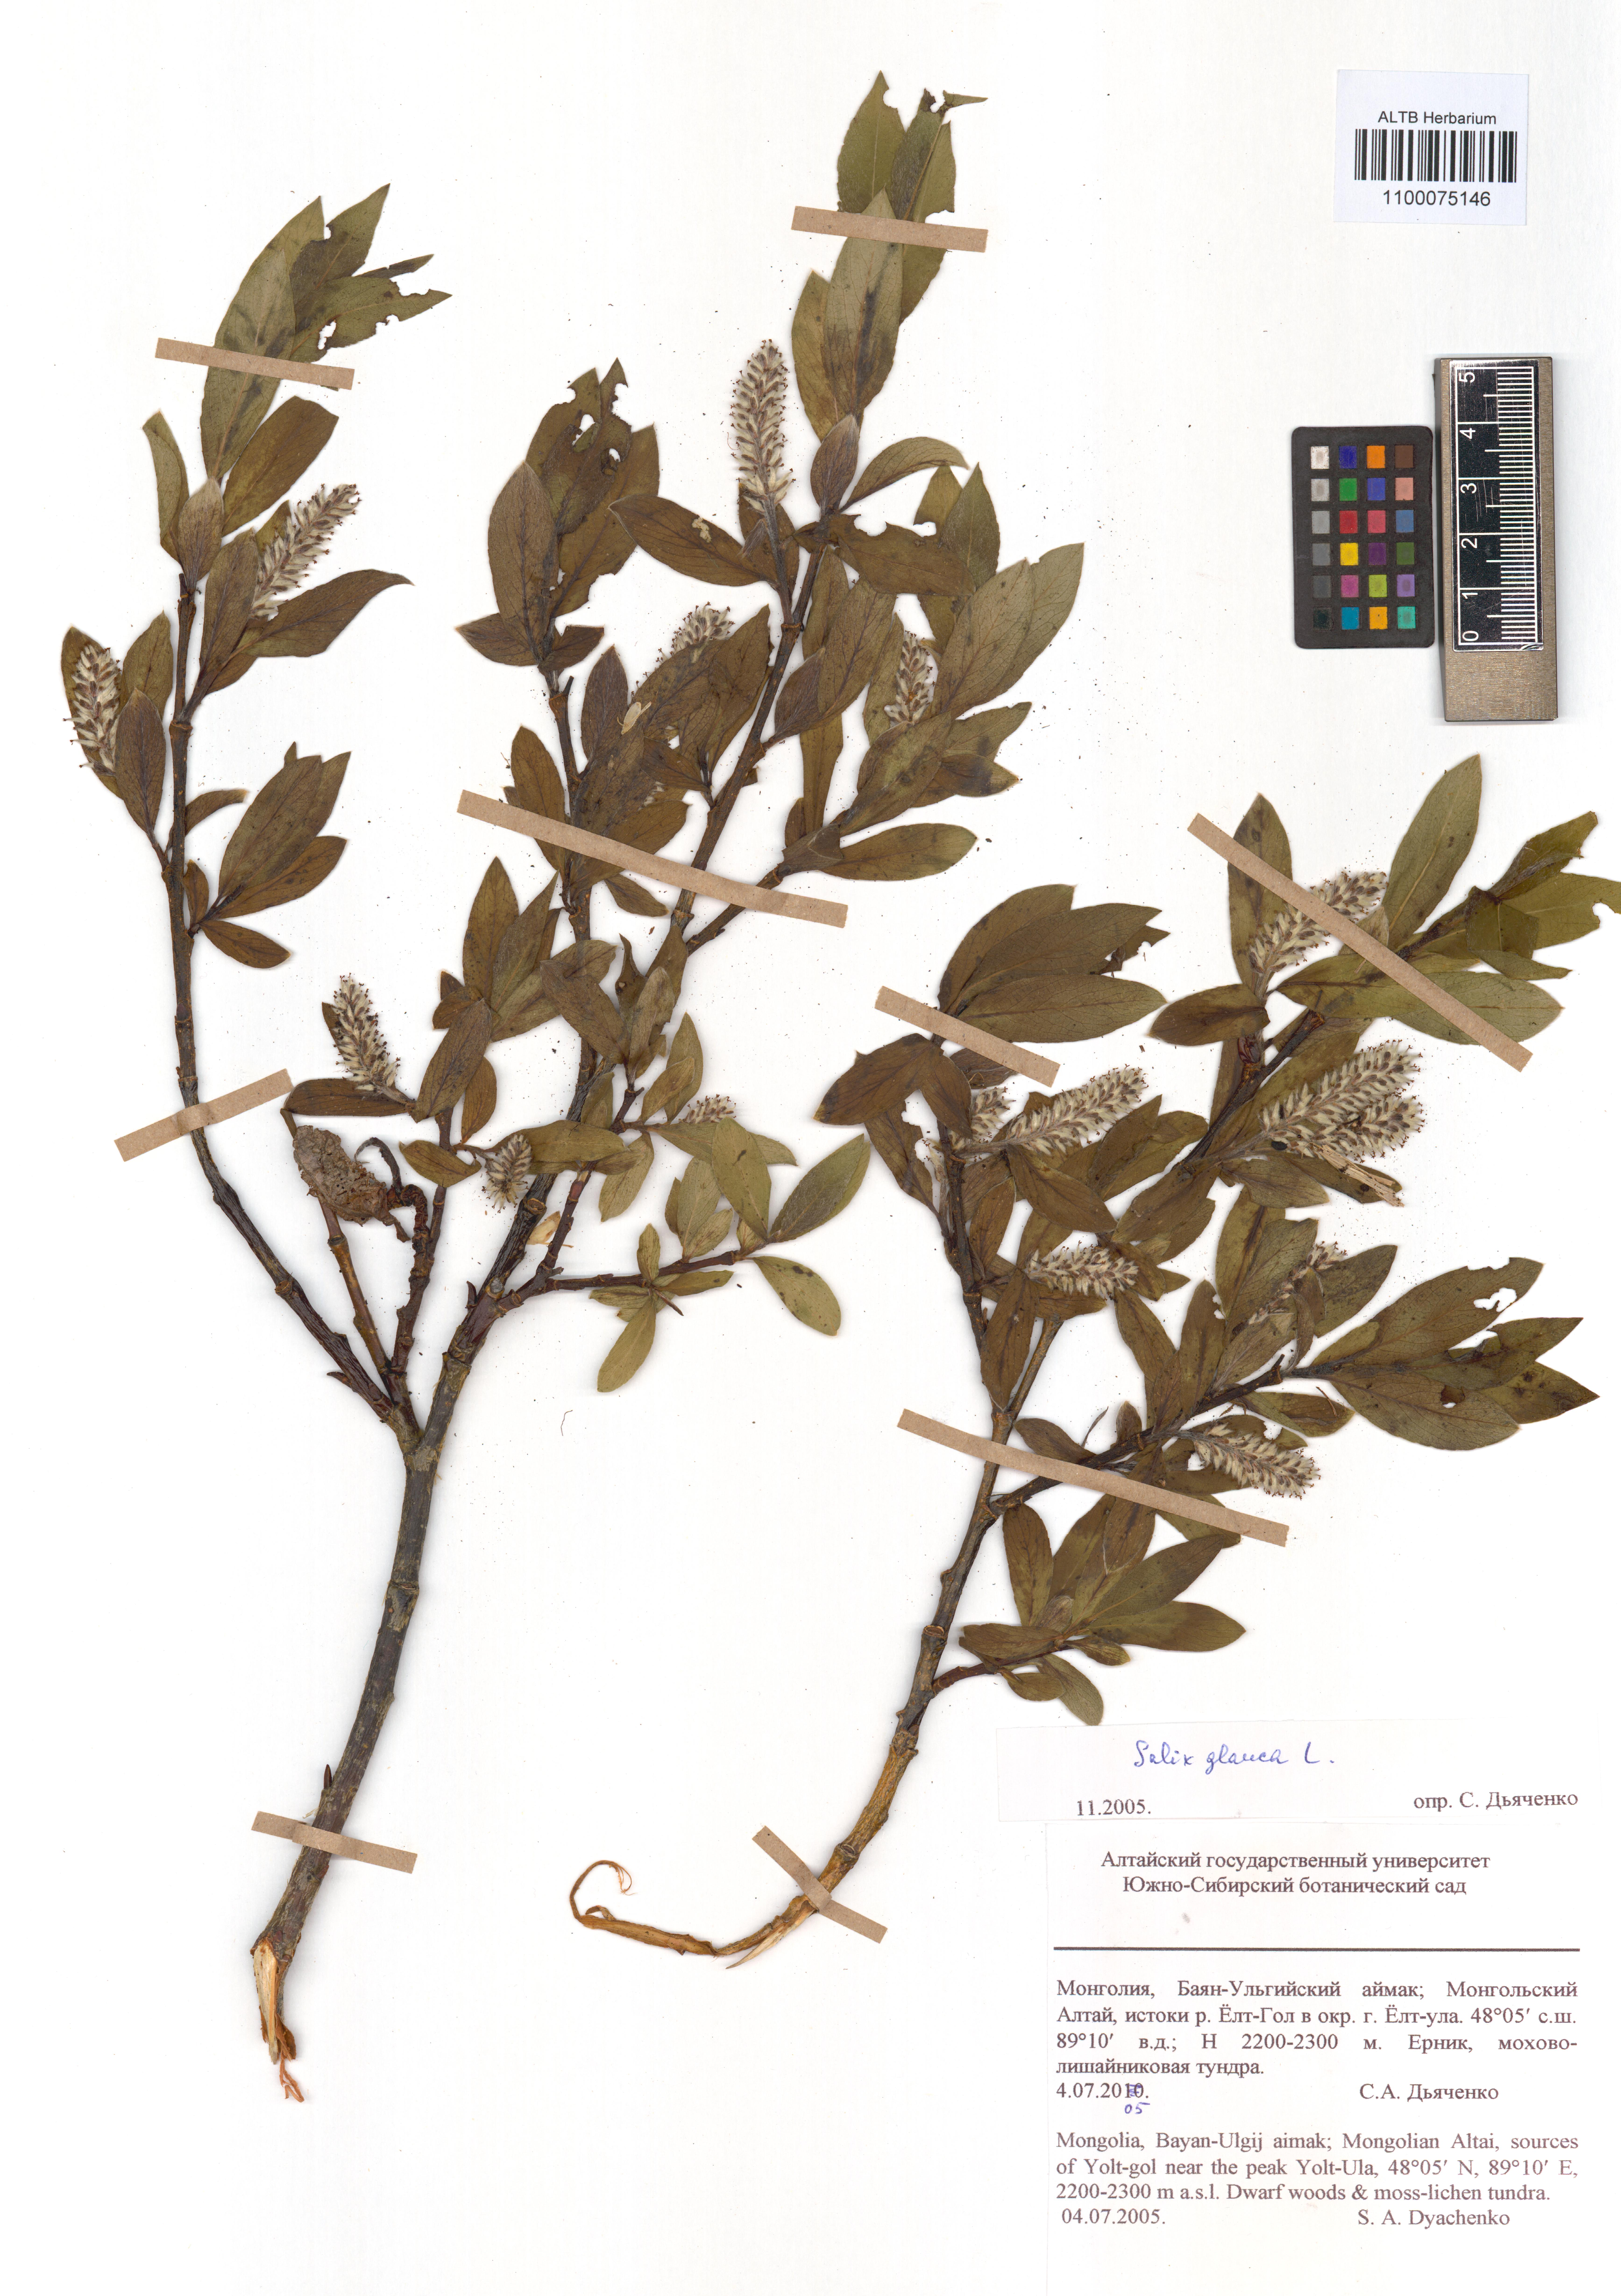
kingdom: Plantae
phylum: Tracheophyta
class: Magnoliopsida
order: Malpighiales
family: Salicaceae
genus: Salix
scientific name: Salix glauca
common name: Glaucous willow
